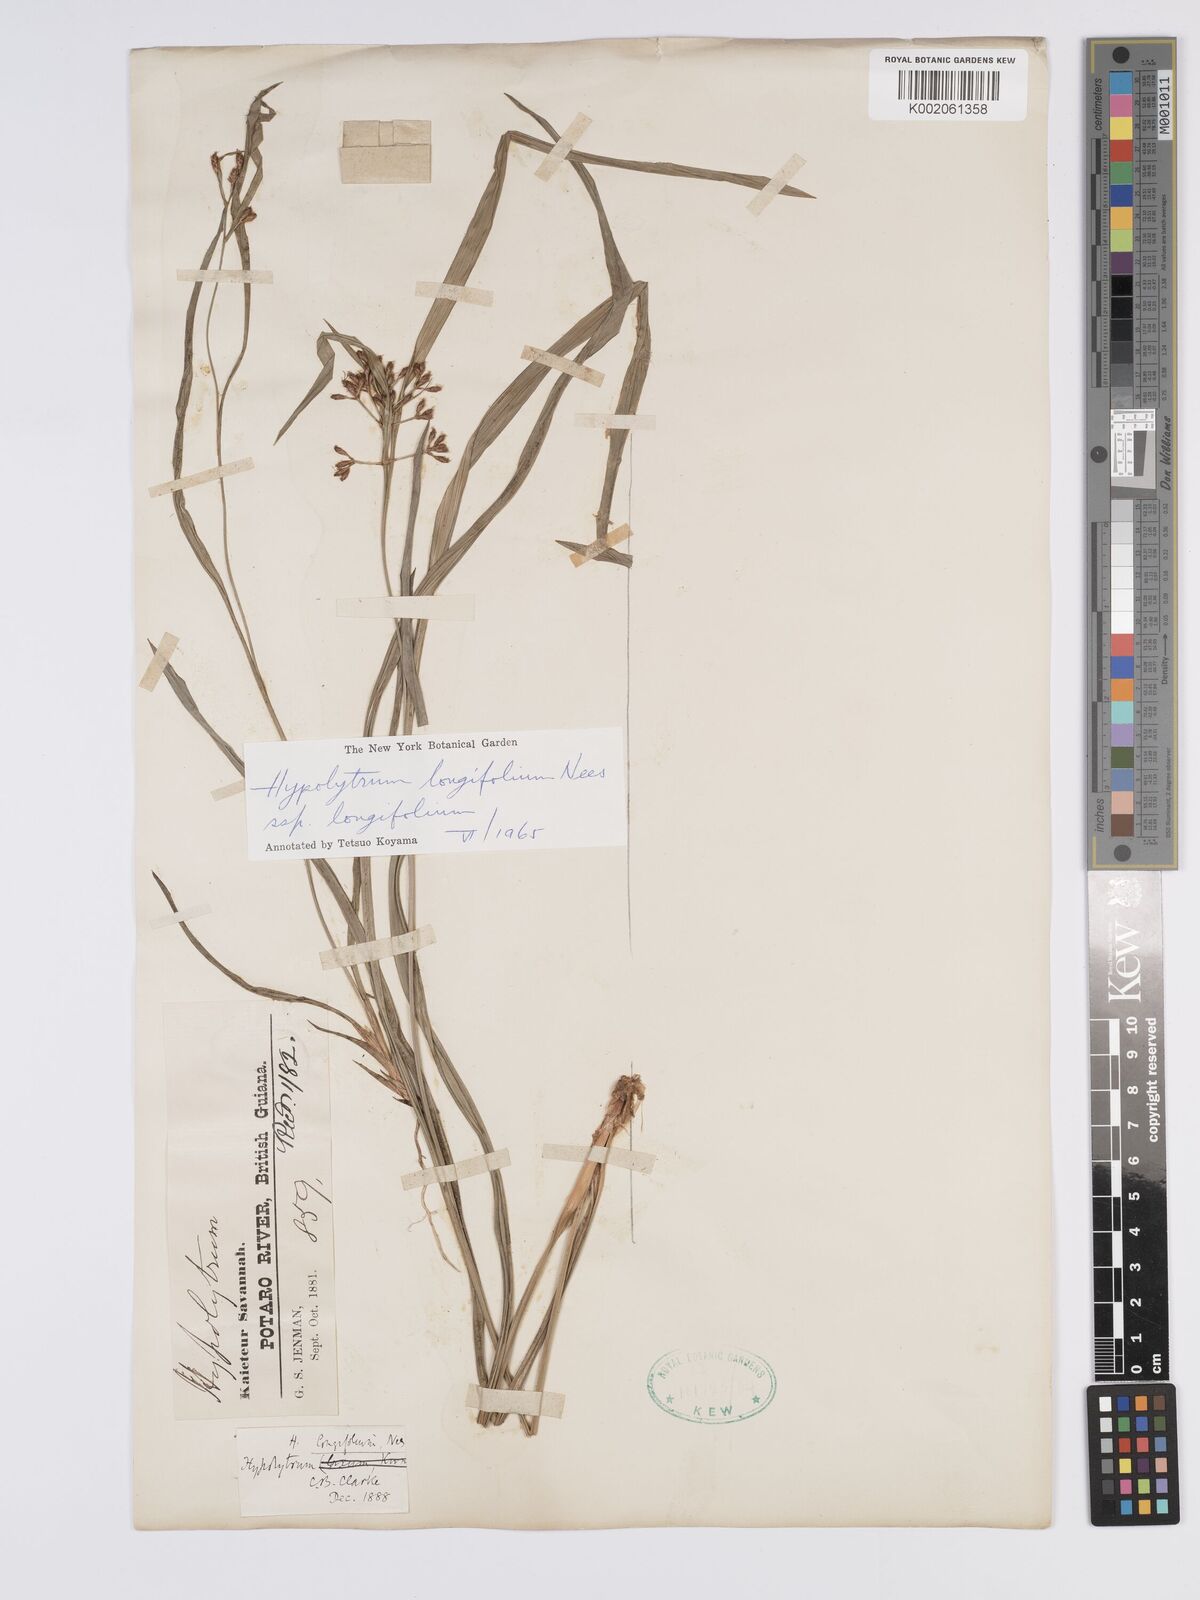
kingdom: Plantae
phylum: Tracheophyta
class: Liliopsida
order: Poales
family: Cyperaceae
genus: Hypolytrum
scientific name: Hypolytrum longifolium
